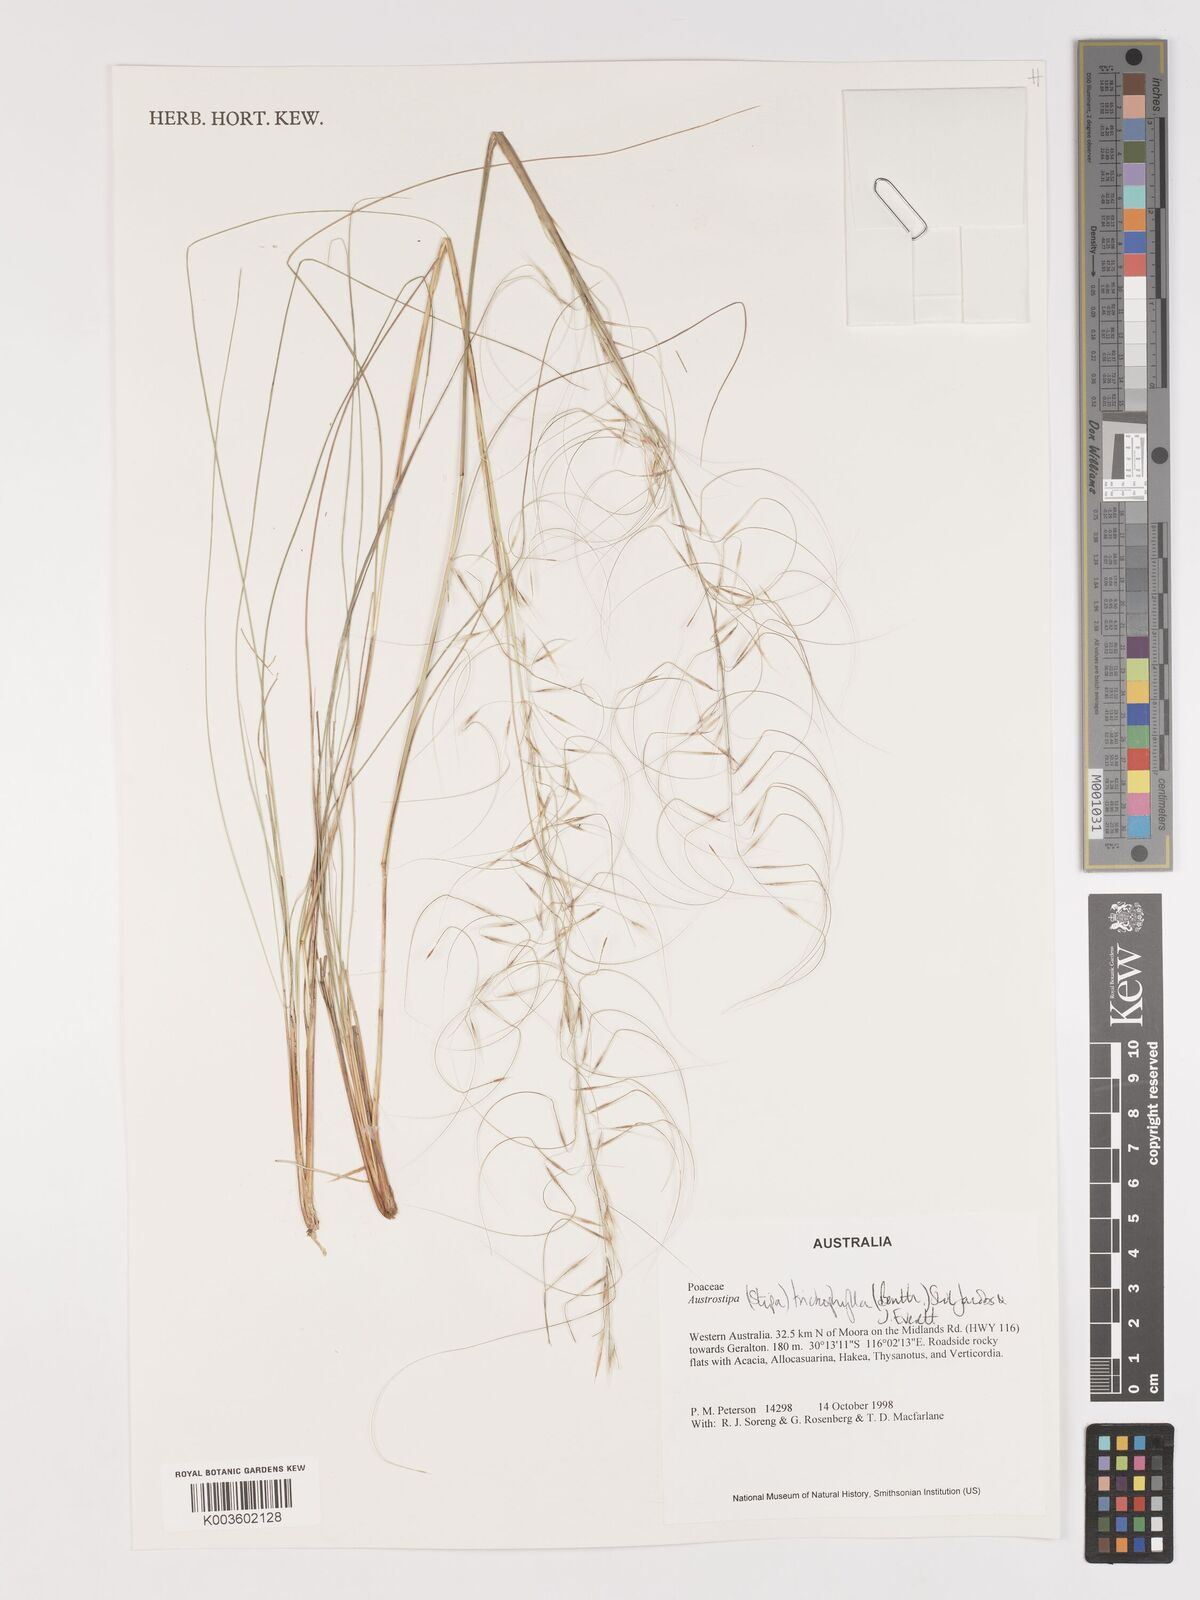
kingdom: Plantae
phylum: Tracheophyta
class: Liliopsida
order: Poales
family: Poaceae
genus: Austrostipa
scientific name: Austrostipa trichophylla
